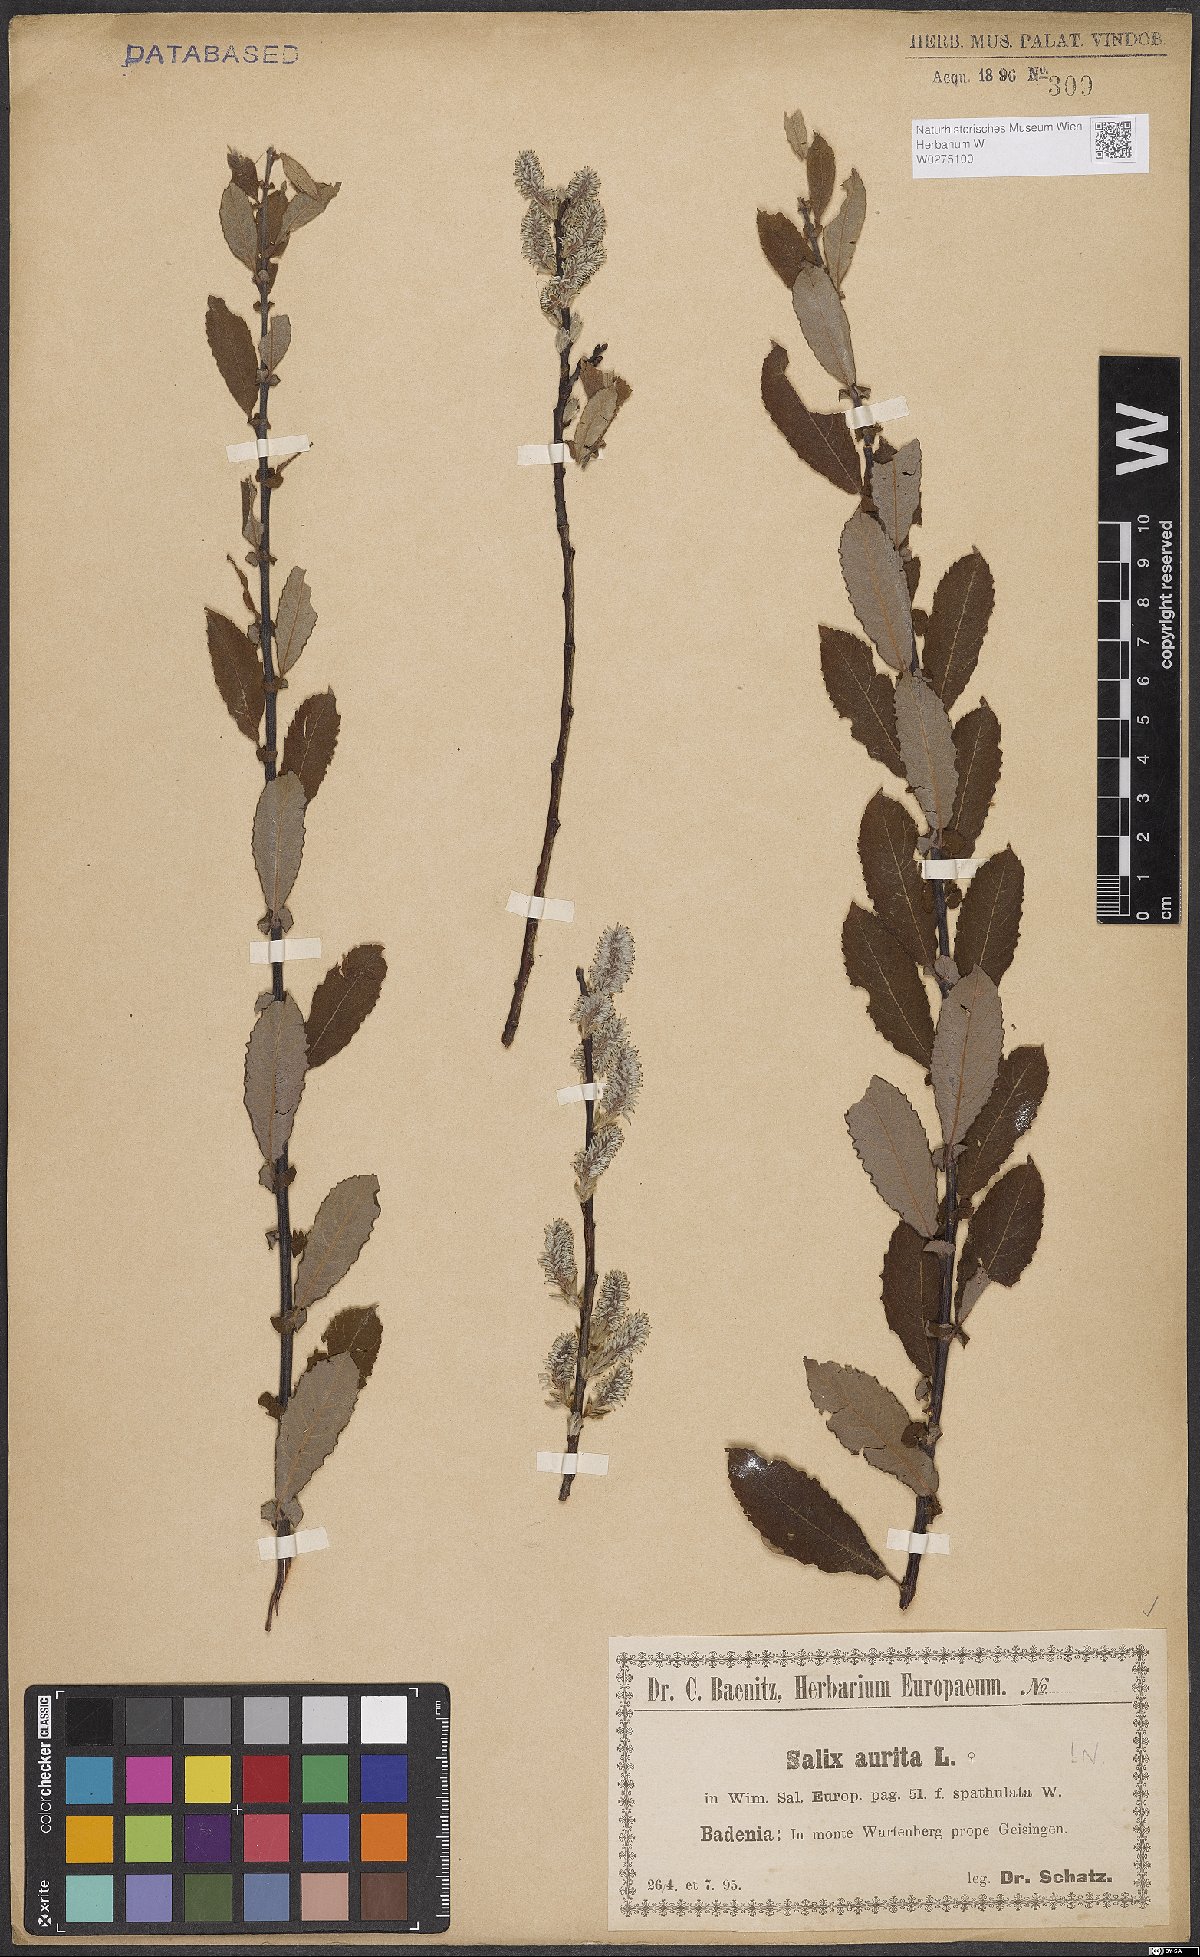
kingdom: Plantae
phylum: Tracheophyta
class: Magnoliopsida
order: Malpighiales
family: Salicaceae
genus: Salix
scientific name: Salix aurita
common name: Eared willow
